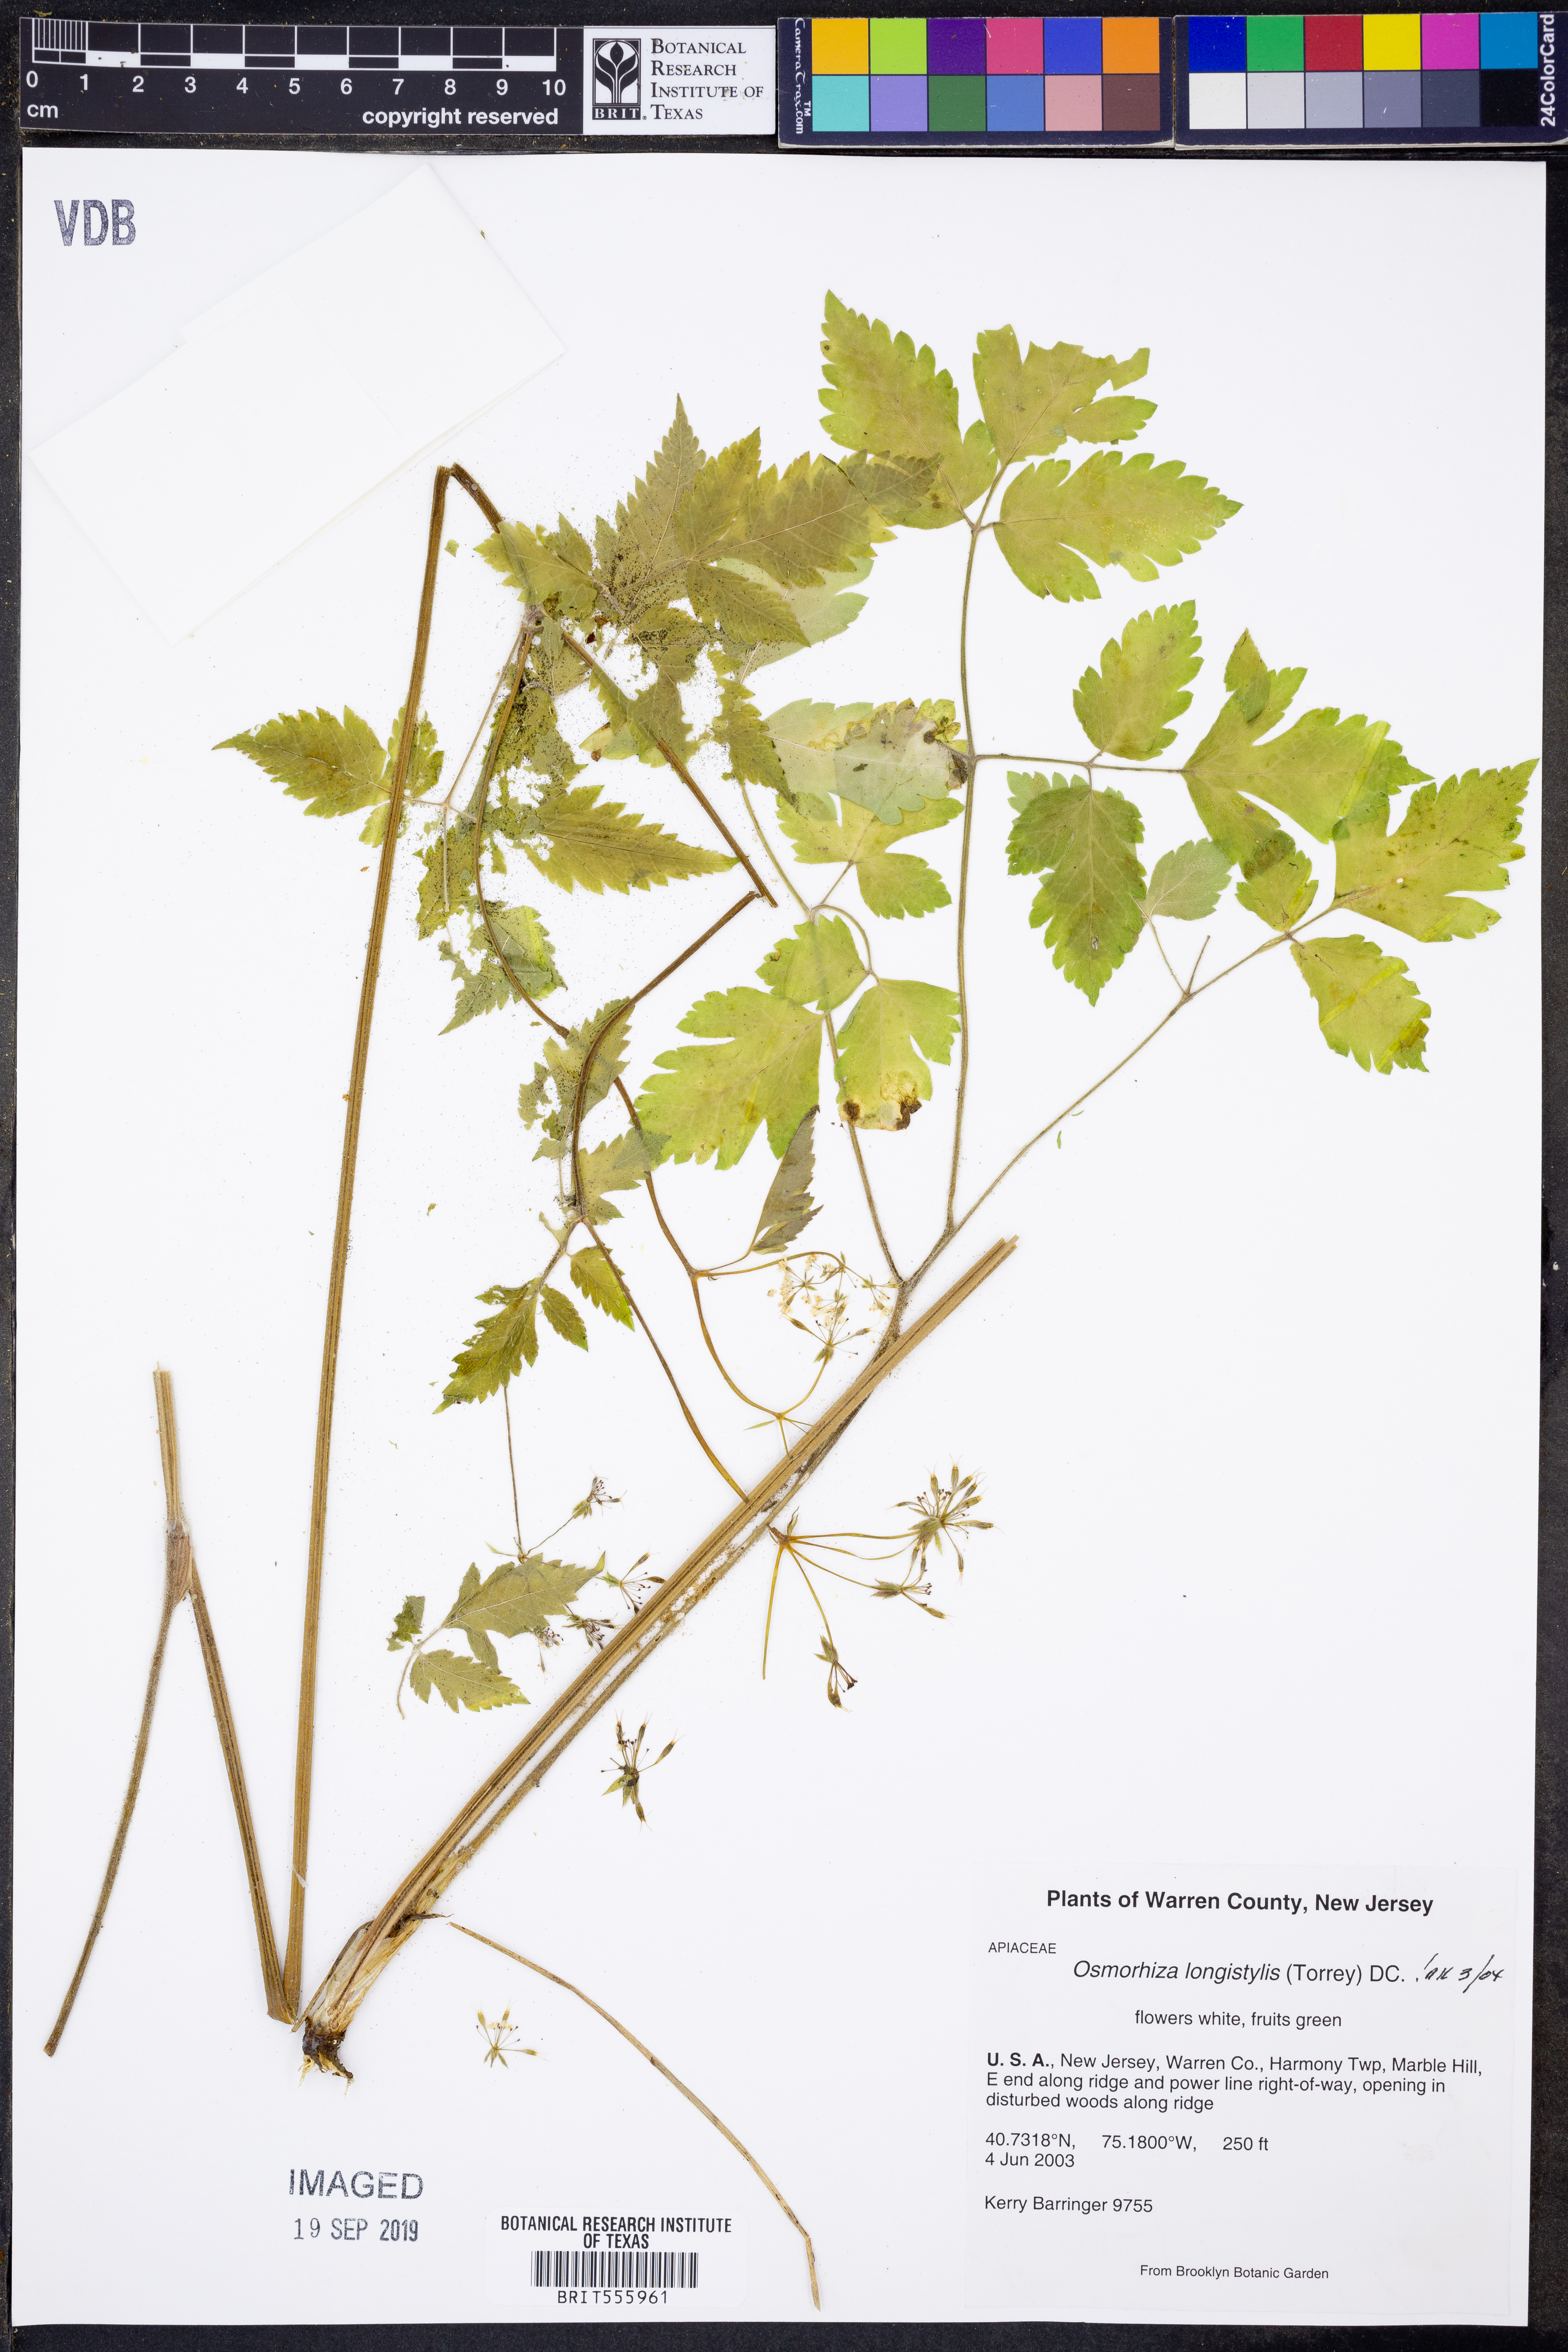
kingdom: Plantae
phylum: Tracheophyta
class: Magnoliopsida
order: Apiales
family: Apiaceae
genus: Osmorhiza
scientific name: Osmorhiza longistylis
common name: Smooth sweet cicely
